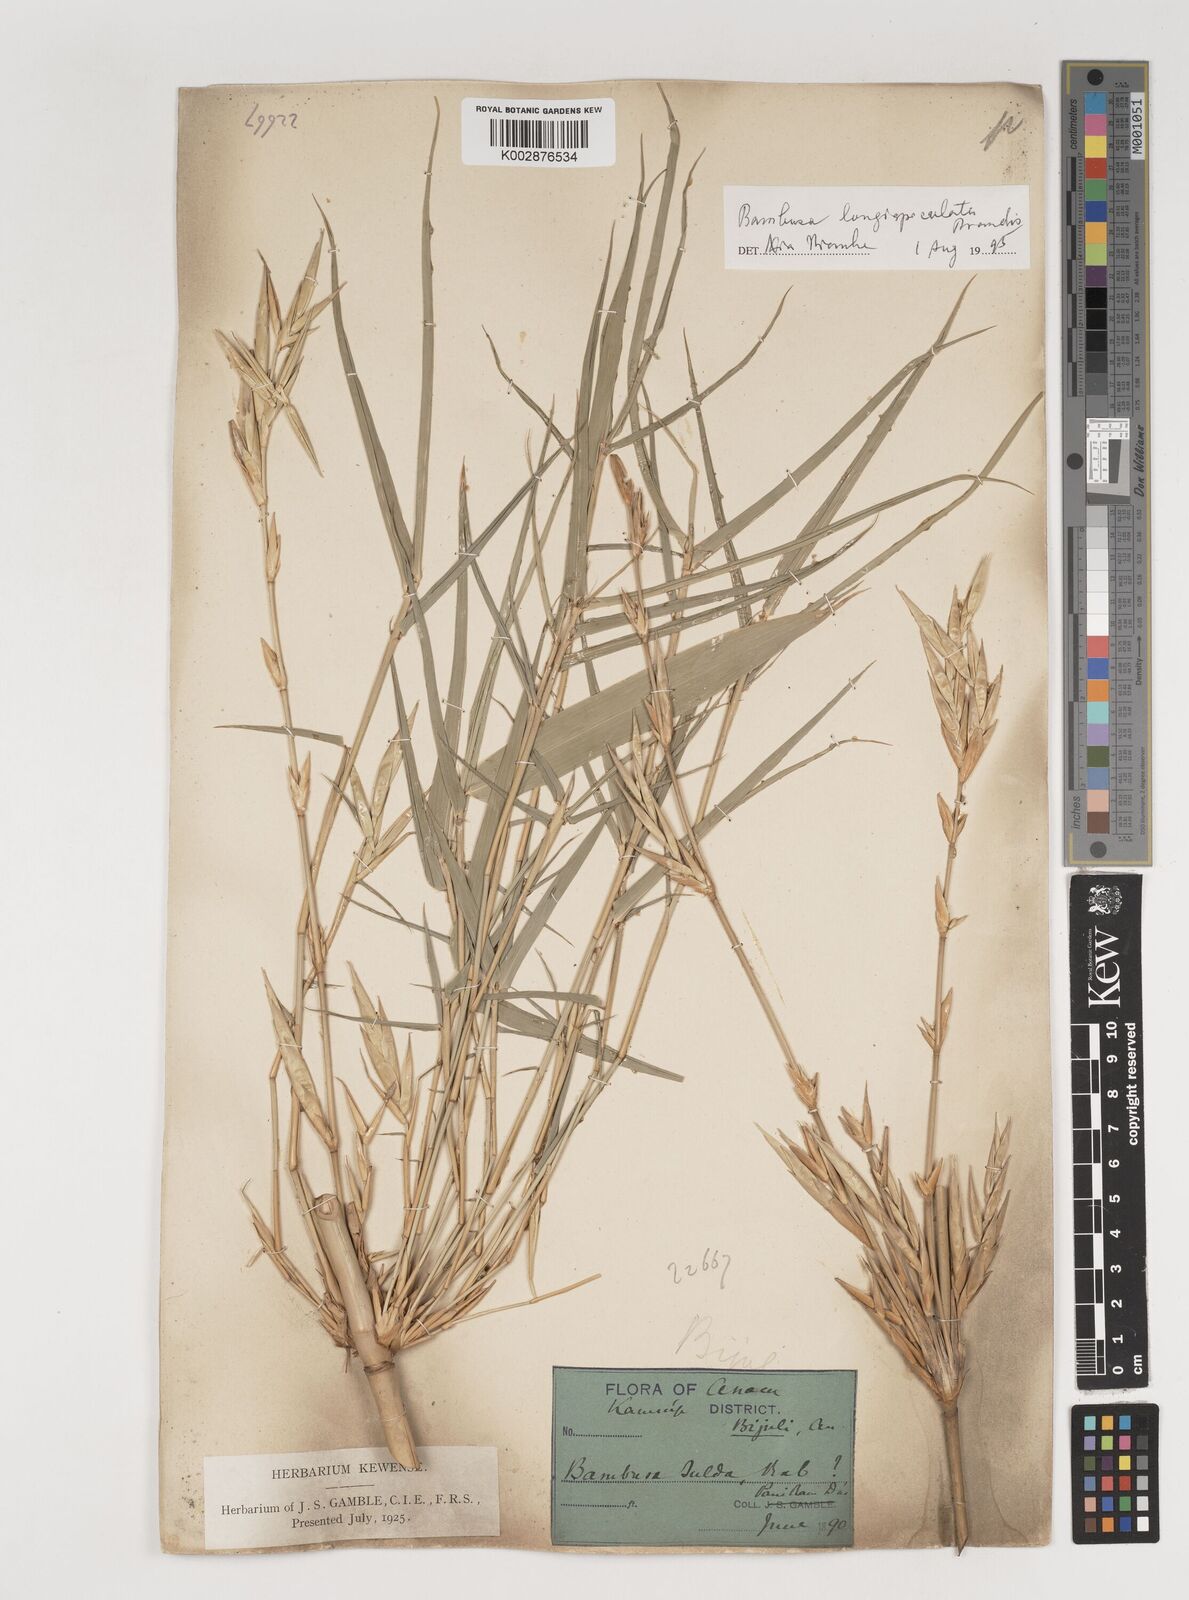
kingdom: Plantae
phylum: Tracheophyta
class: Liliopsida
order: Poales
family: Poaceae
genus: Bambusa
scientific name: Bambusa longispiculata
